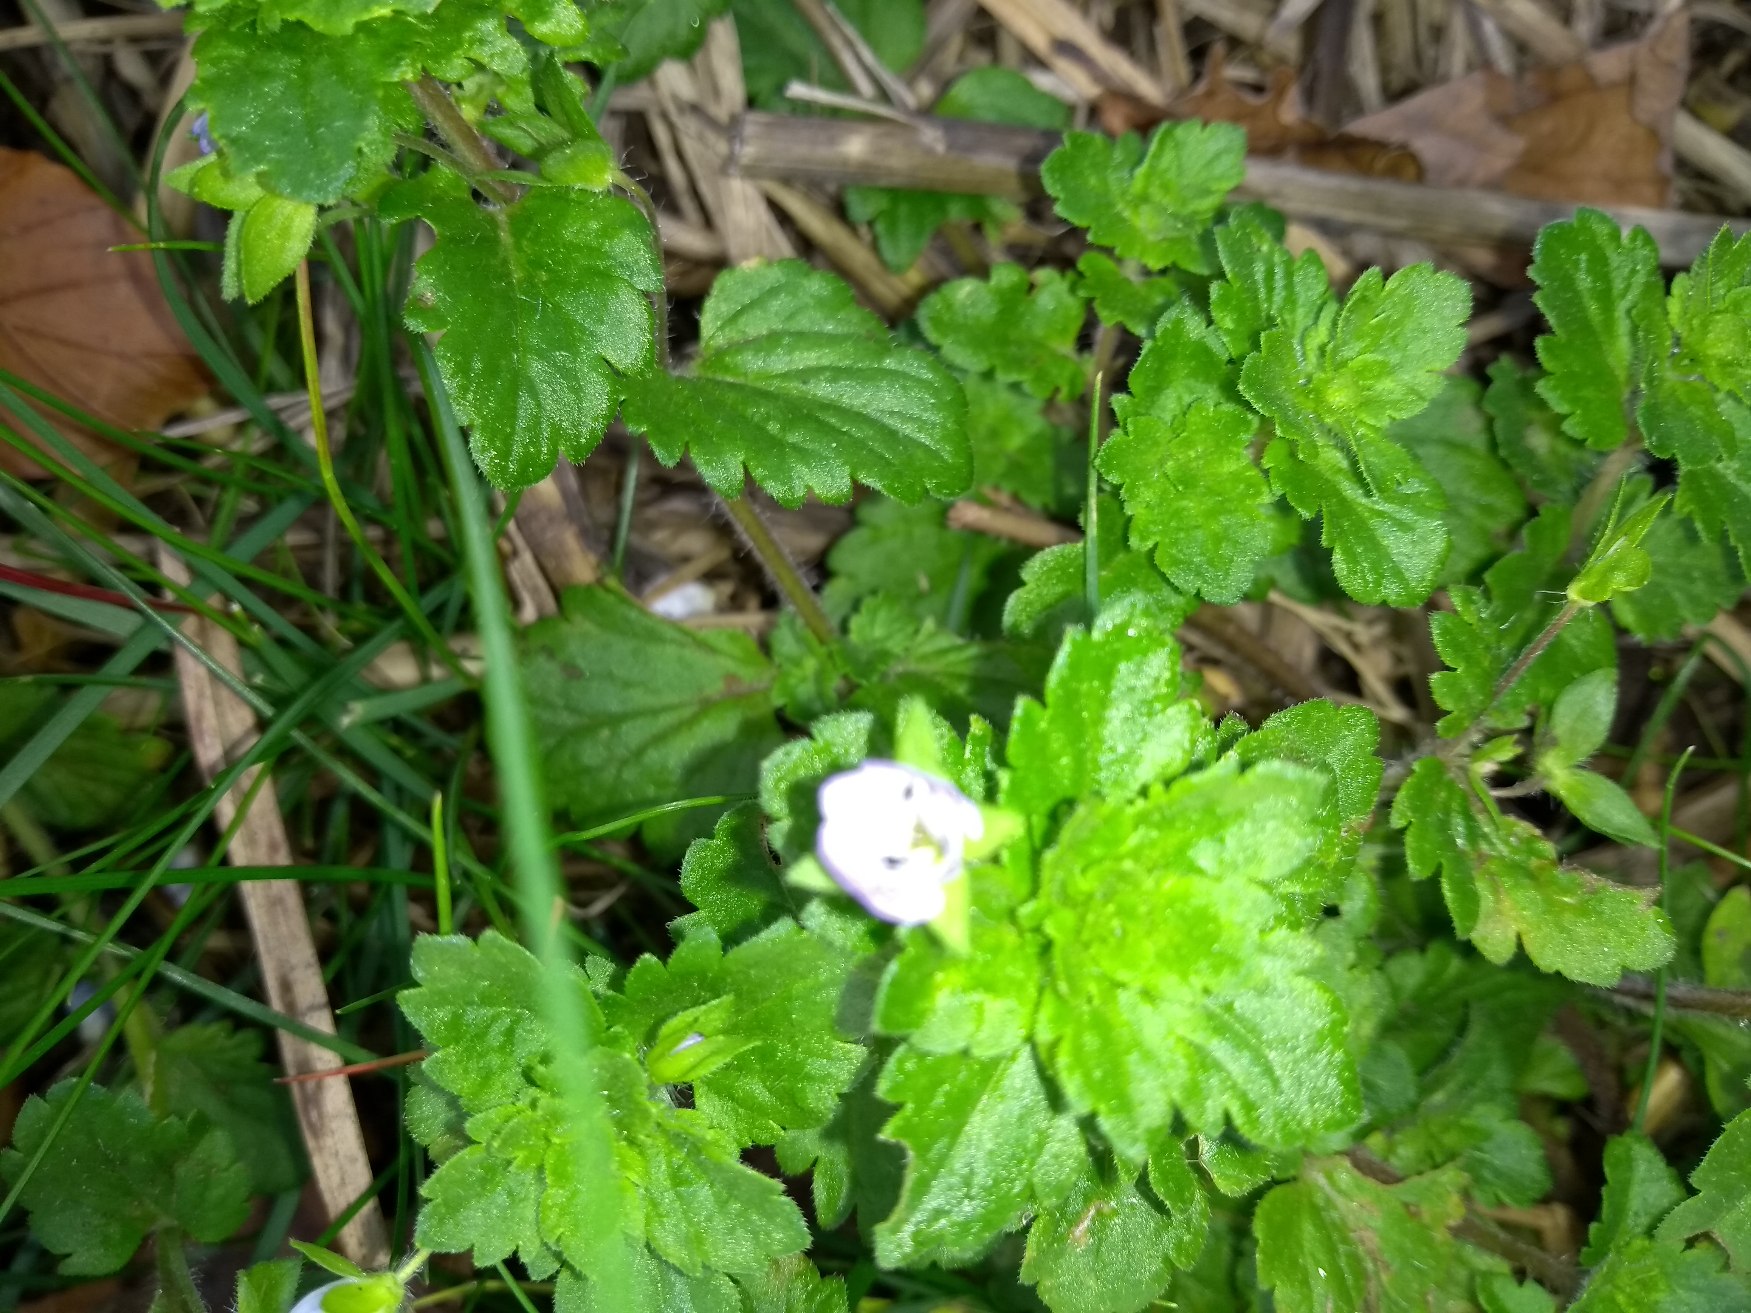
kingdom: Plantae
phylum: Tracheophyta
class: Magnoliopsida
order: Lamiales
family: Plantaginaceae
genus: Veronica
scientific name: Veronica persica
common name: Storkronet ærenpris
